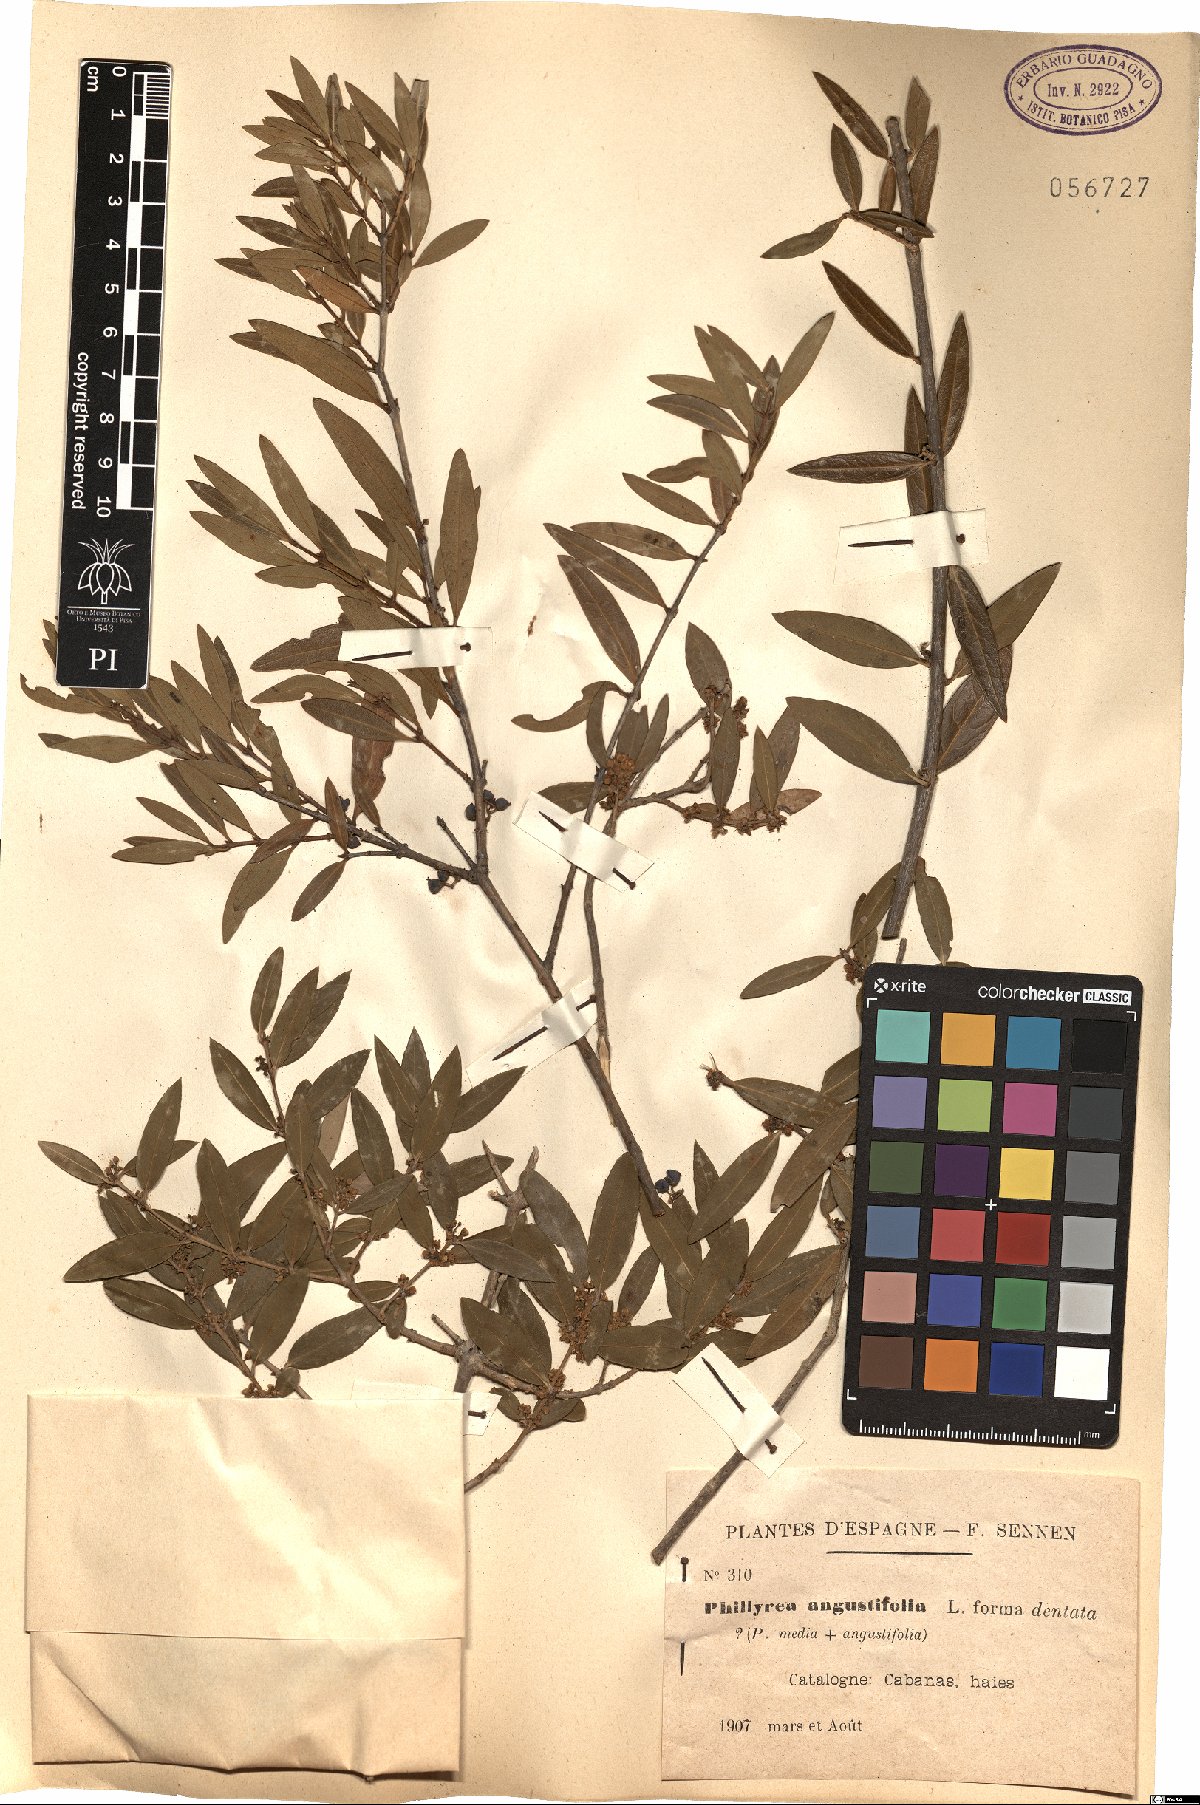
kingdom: Plantae
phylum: Tracheophyta
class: Magnoliopsida
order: Lamiales
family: Oleaceae
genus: Phillyrea
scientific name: Phillyrea angustifolia
